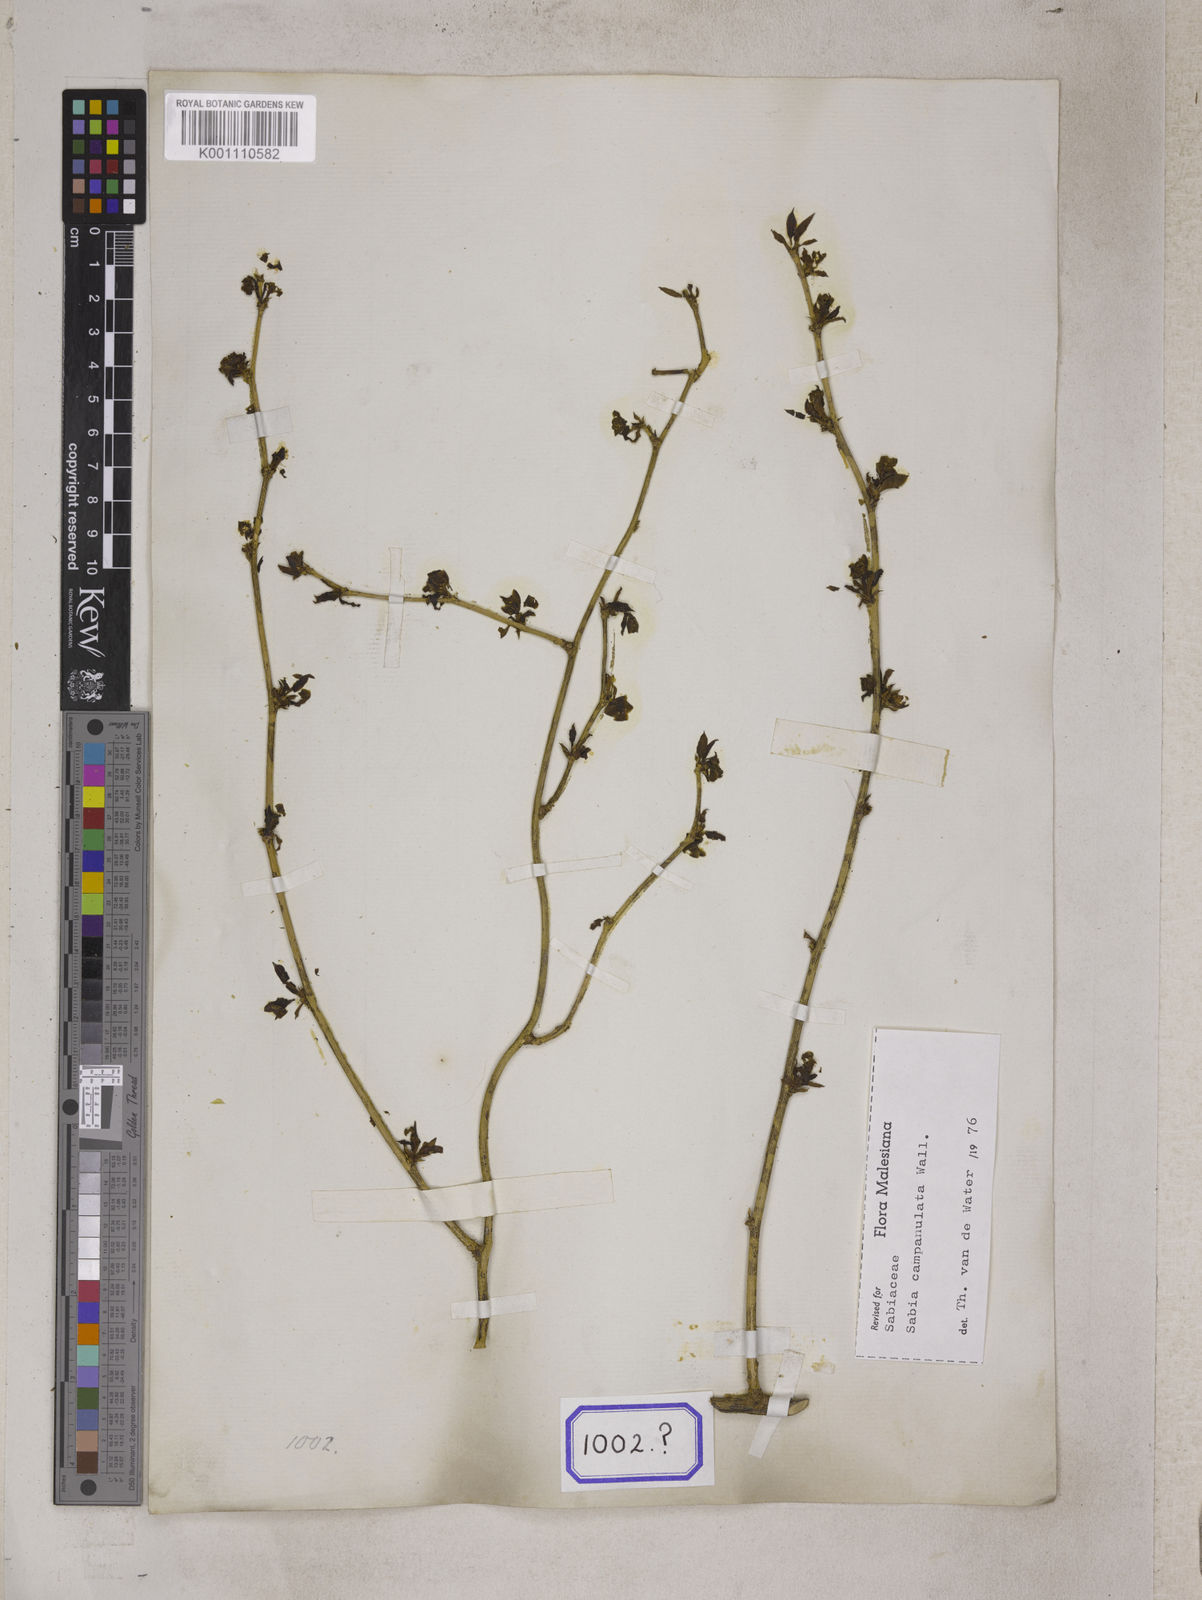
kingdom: Plantae
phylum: Tracheophyta
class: Magnoliopsida
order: Proteales
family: Sabiaceae
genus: Sabia
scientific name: Sabia campanulata
